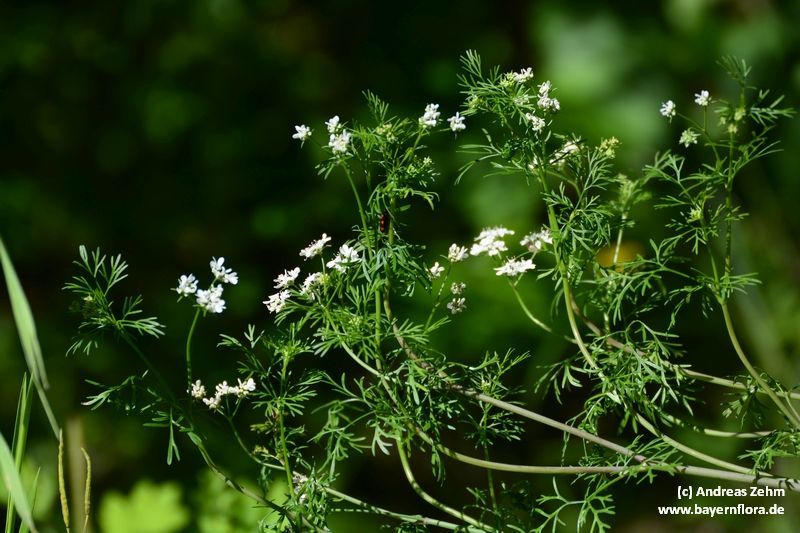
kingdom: Plantae
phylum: Tracheophyta
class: Magnoliopsida
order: Apiales
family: Apiaceae
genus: Coriandrum
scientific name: Coriandrum sativum
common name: Coriander
